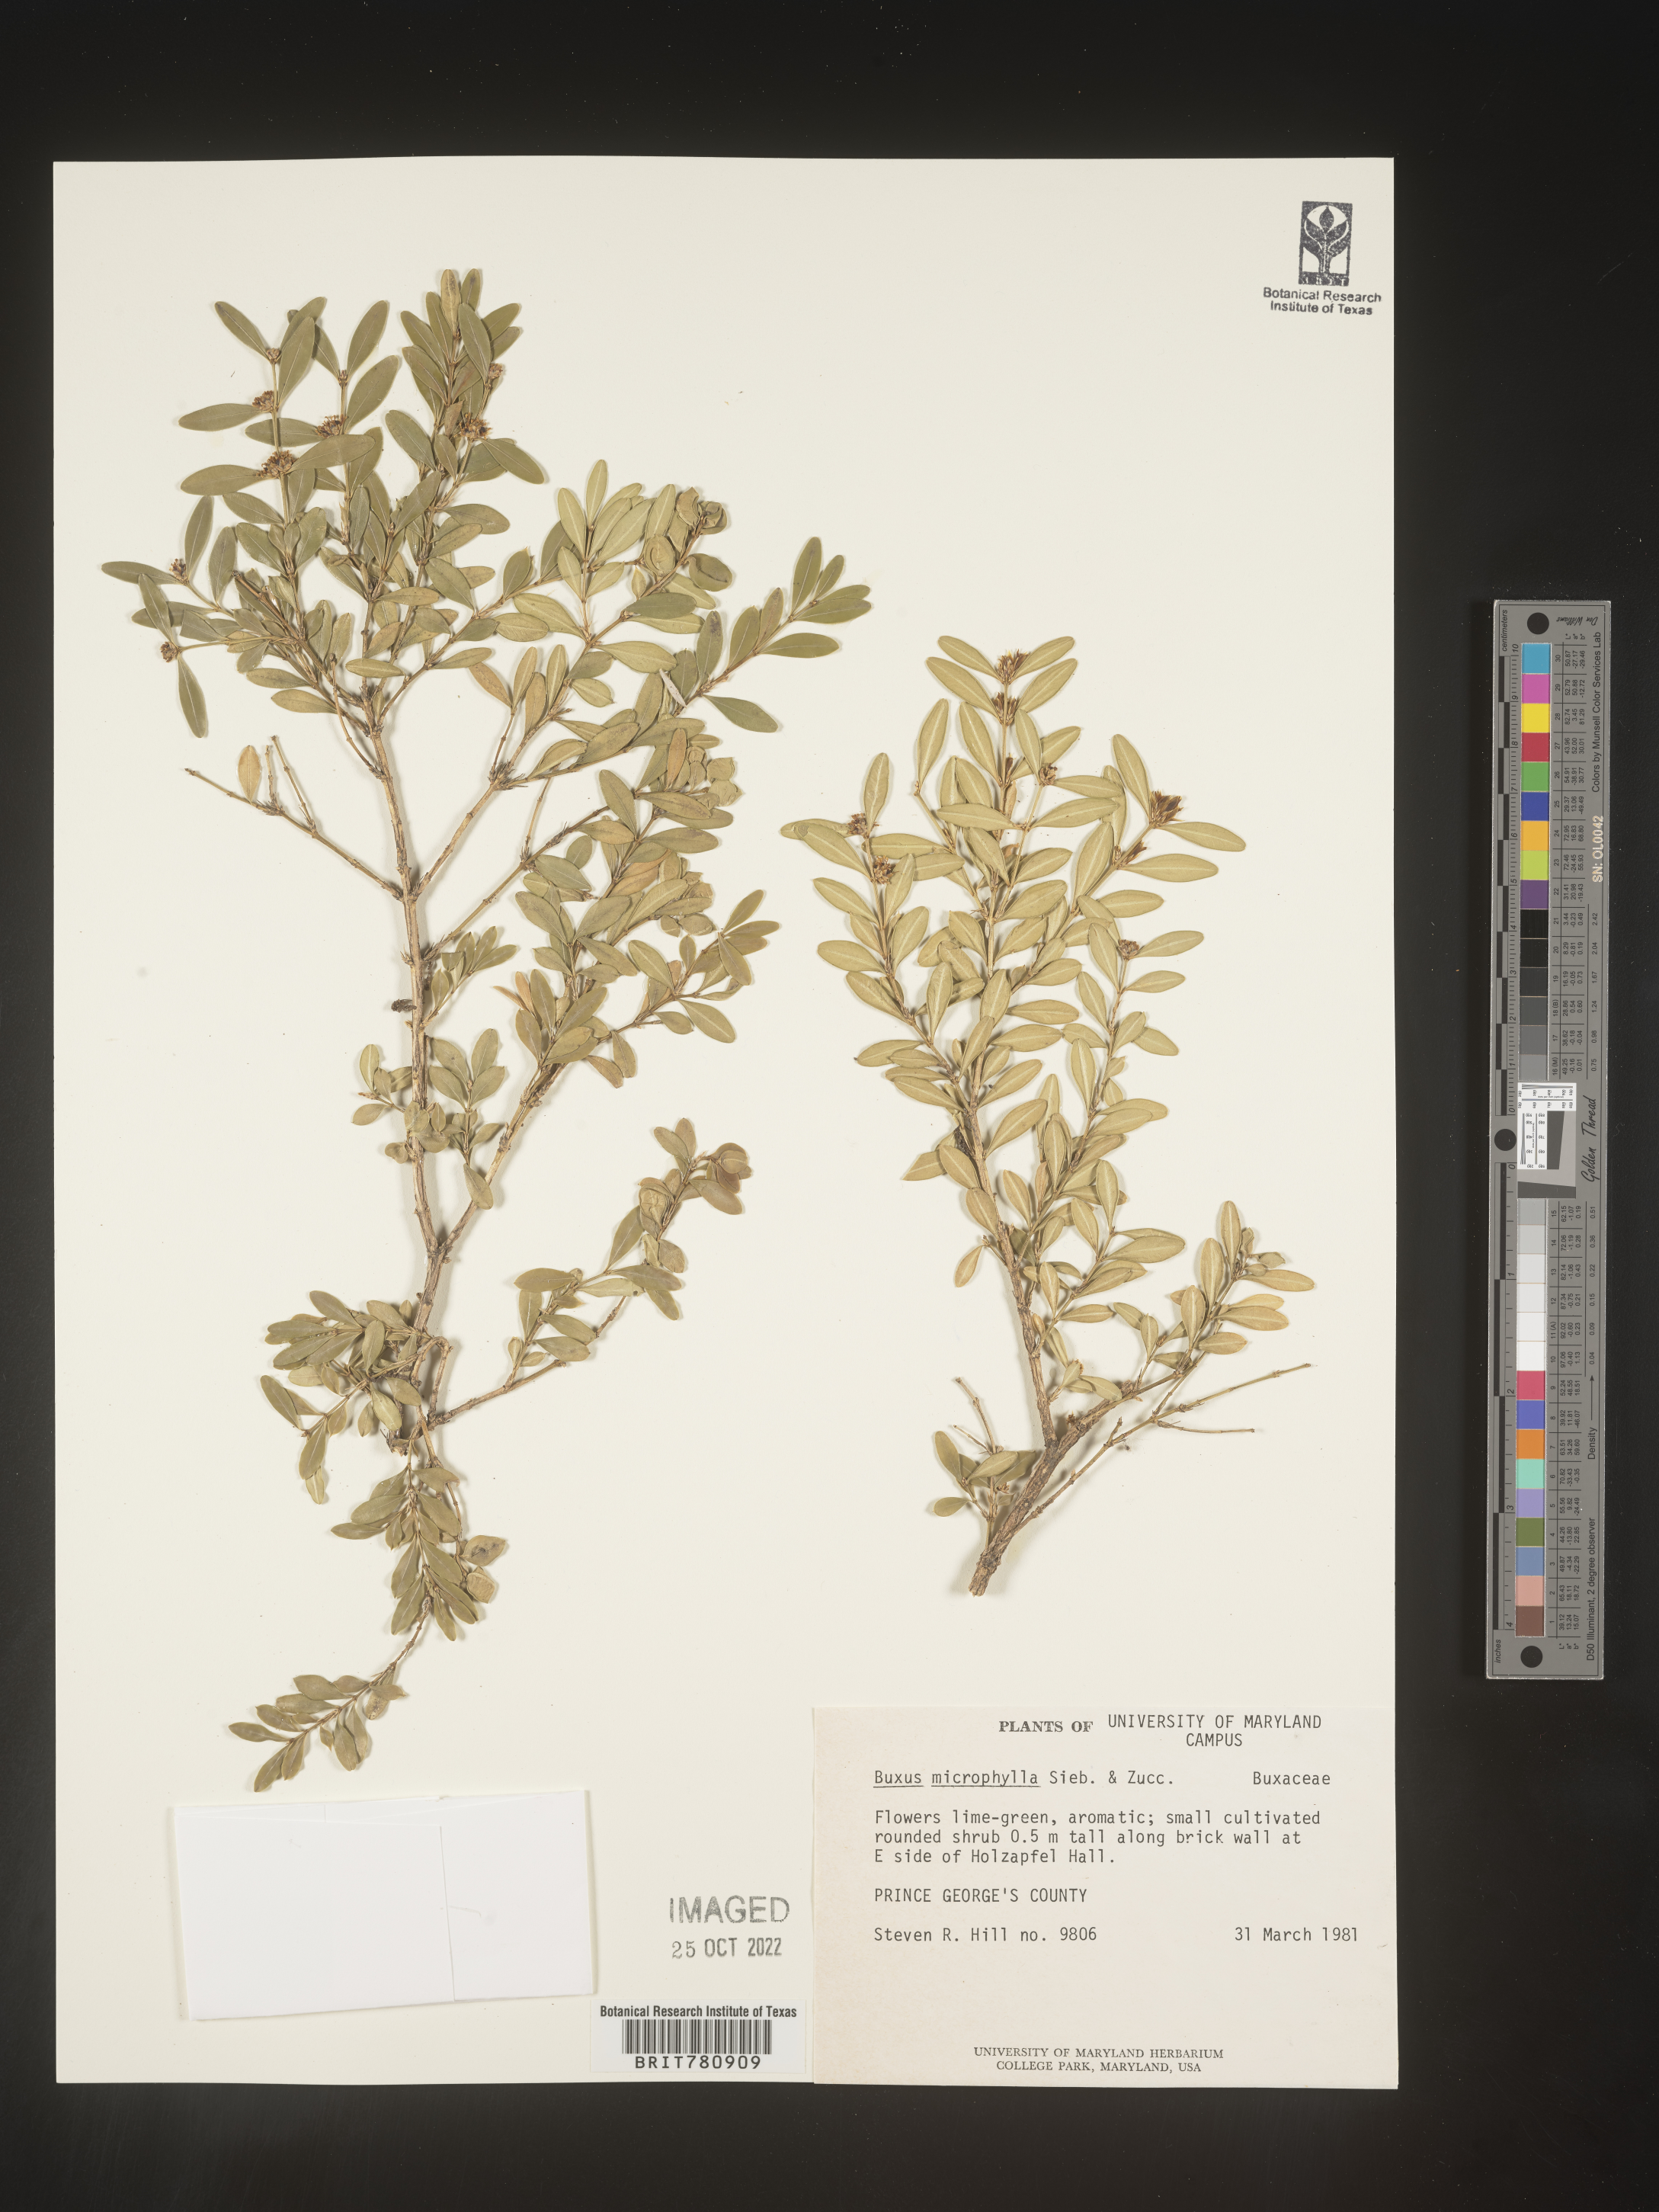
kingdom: Plantae
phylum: Tracheophyta
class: Magnoliopsida
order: Buxales
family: Buxaceae
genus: Buxus
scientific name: Buxus
